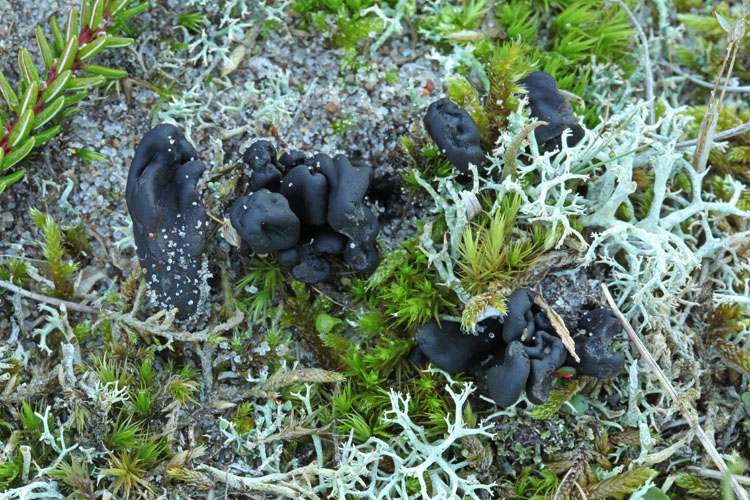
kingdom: Fungi
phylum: Ascomycota
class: Geoglossomycetes
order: Geoglossales
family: Geoglossaceae
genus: Sabuloglossum
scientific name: Sabuloglossum arenarium
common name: klit-jordtunge
